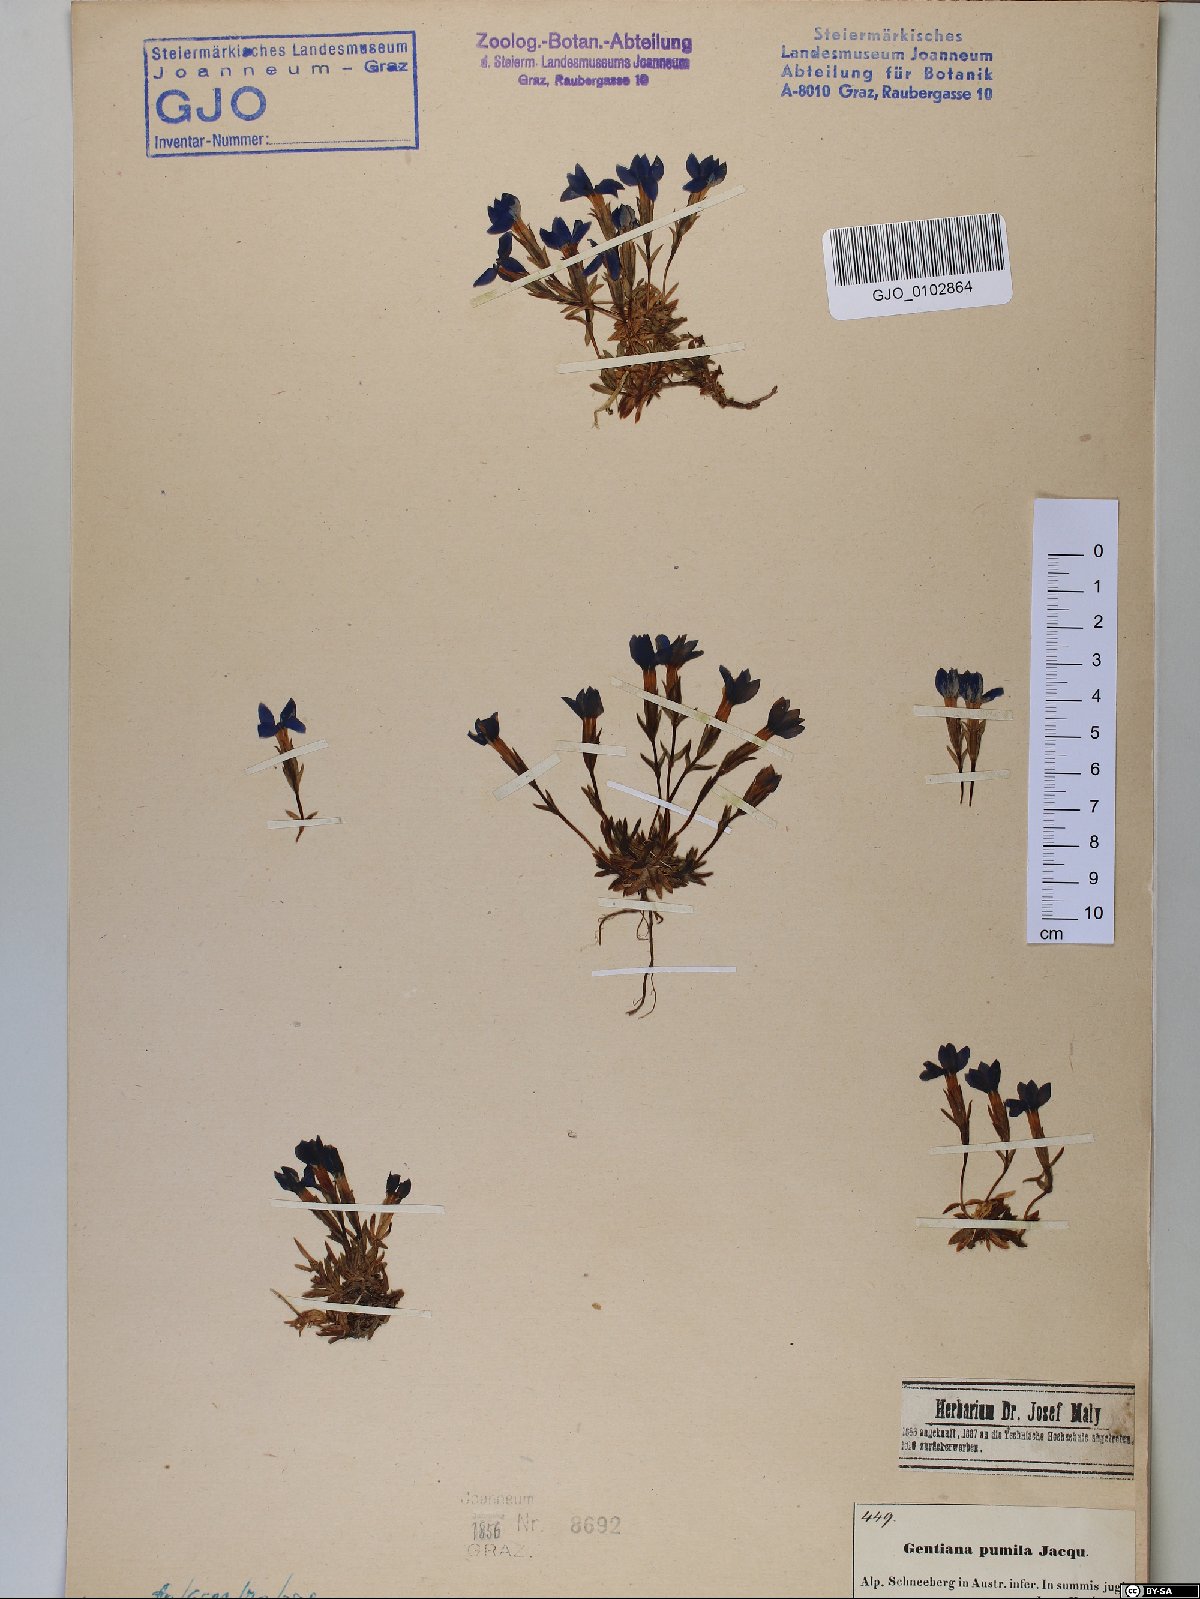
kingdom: Plantae
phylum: Tracheophyta
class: Magnoliopsida
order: Gentianales
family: Gentianaceae
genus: Gentiana
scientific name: Gentiana pumila
